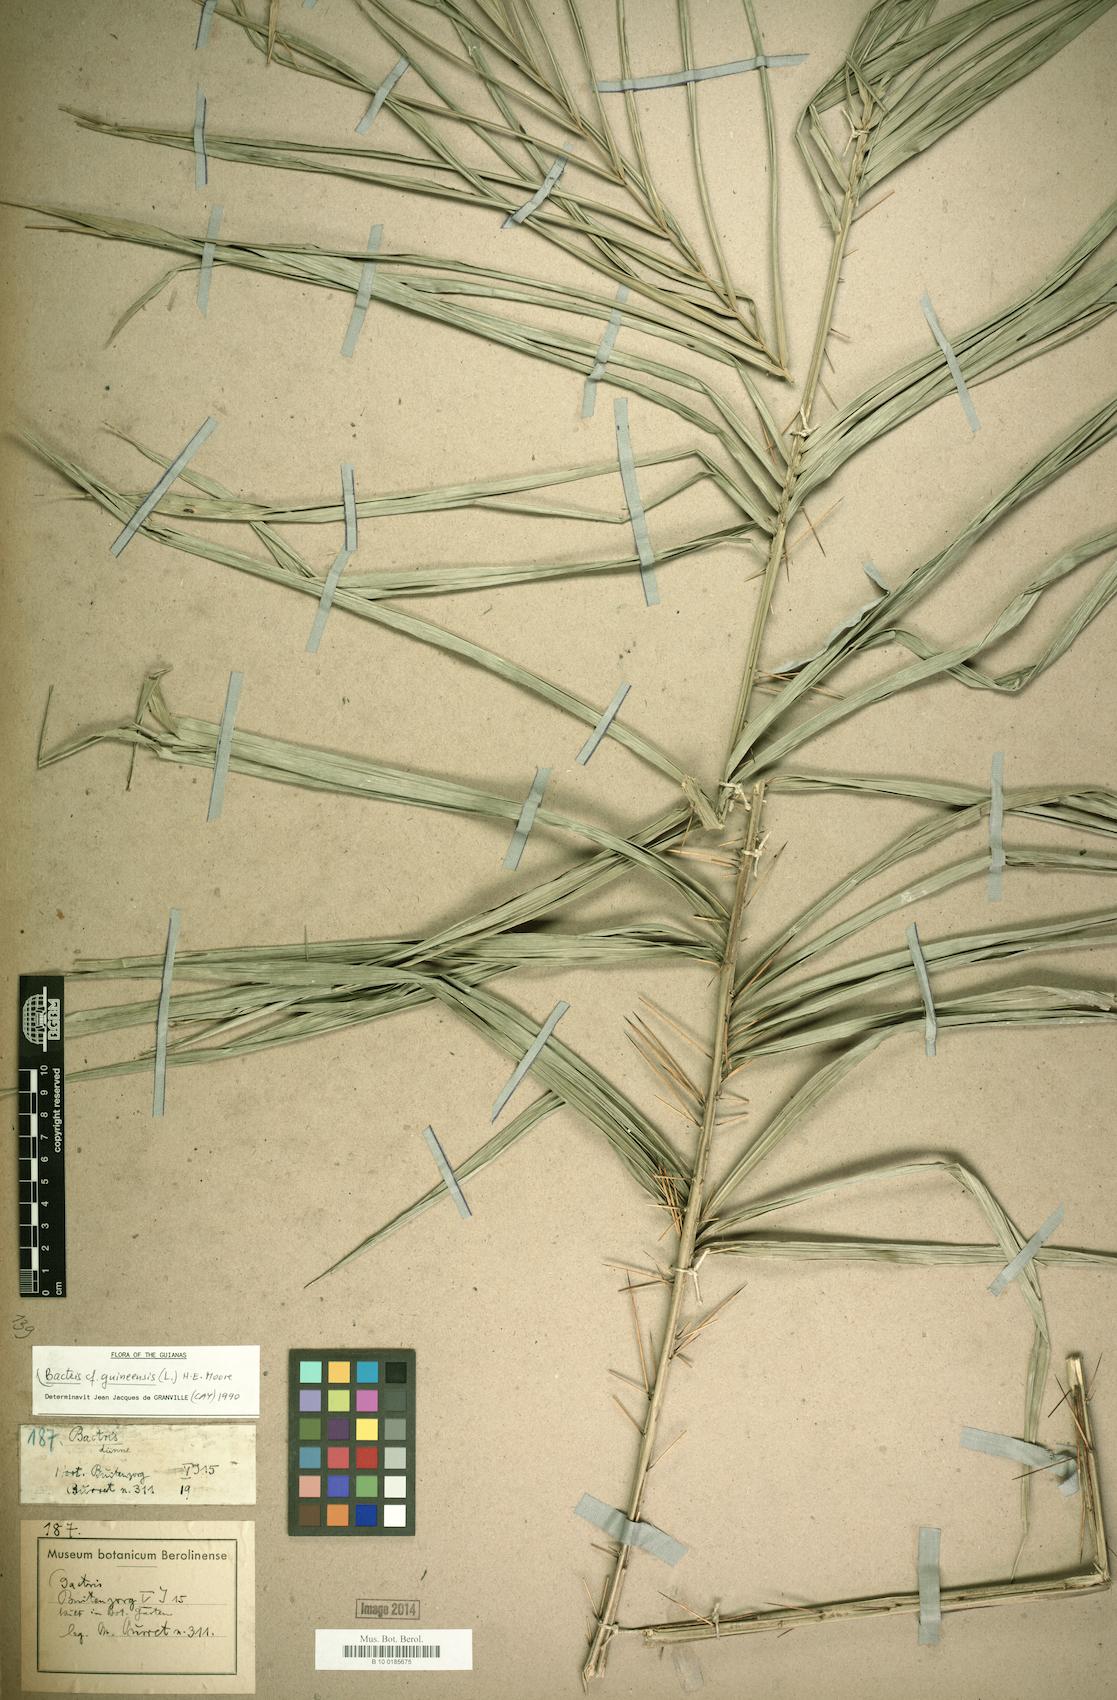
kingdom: Plantae
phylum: Tracheophyta
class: Liliopsida
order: Arecales
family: Arecaceae
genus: Bactris
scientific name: Bactris guineensis
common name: Tobago cane
